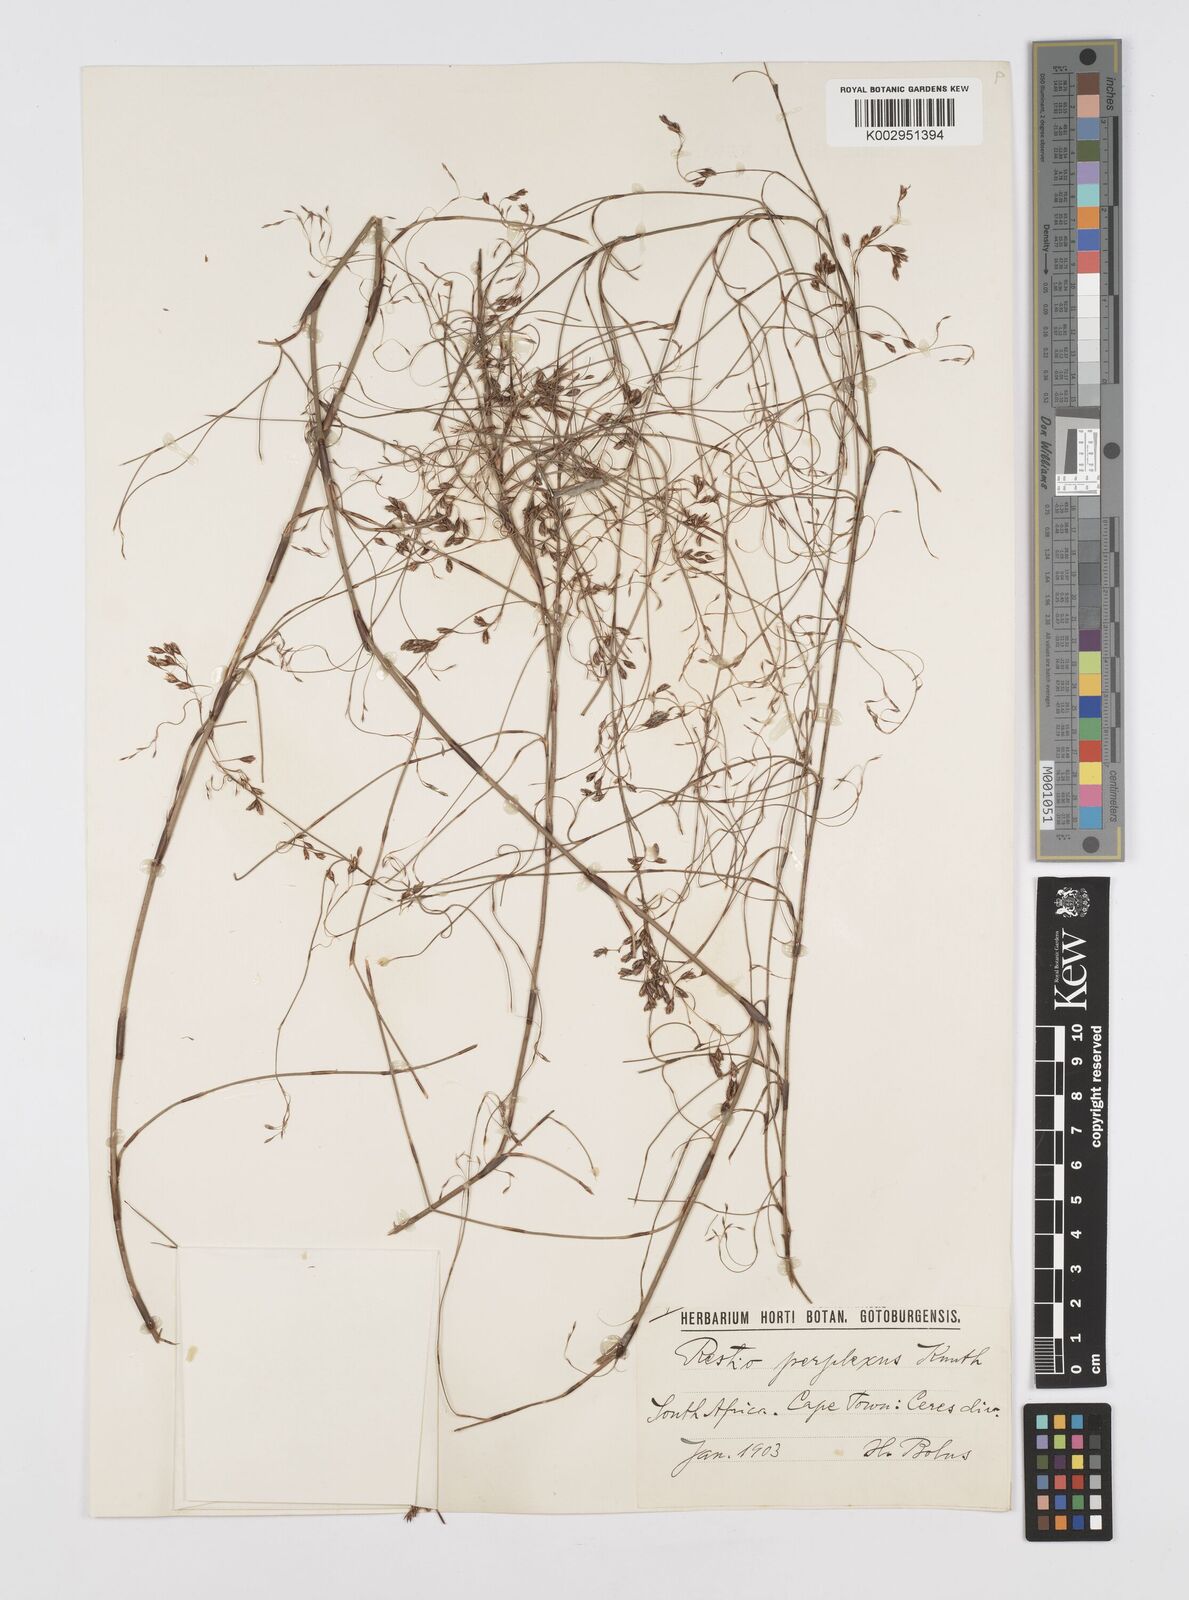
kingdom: Plantae
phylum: Tracheophyta
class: Liliopsida
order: Poales
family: Restionaceae
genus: Restio
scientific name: Restio perplexus
